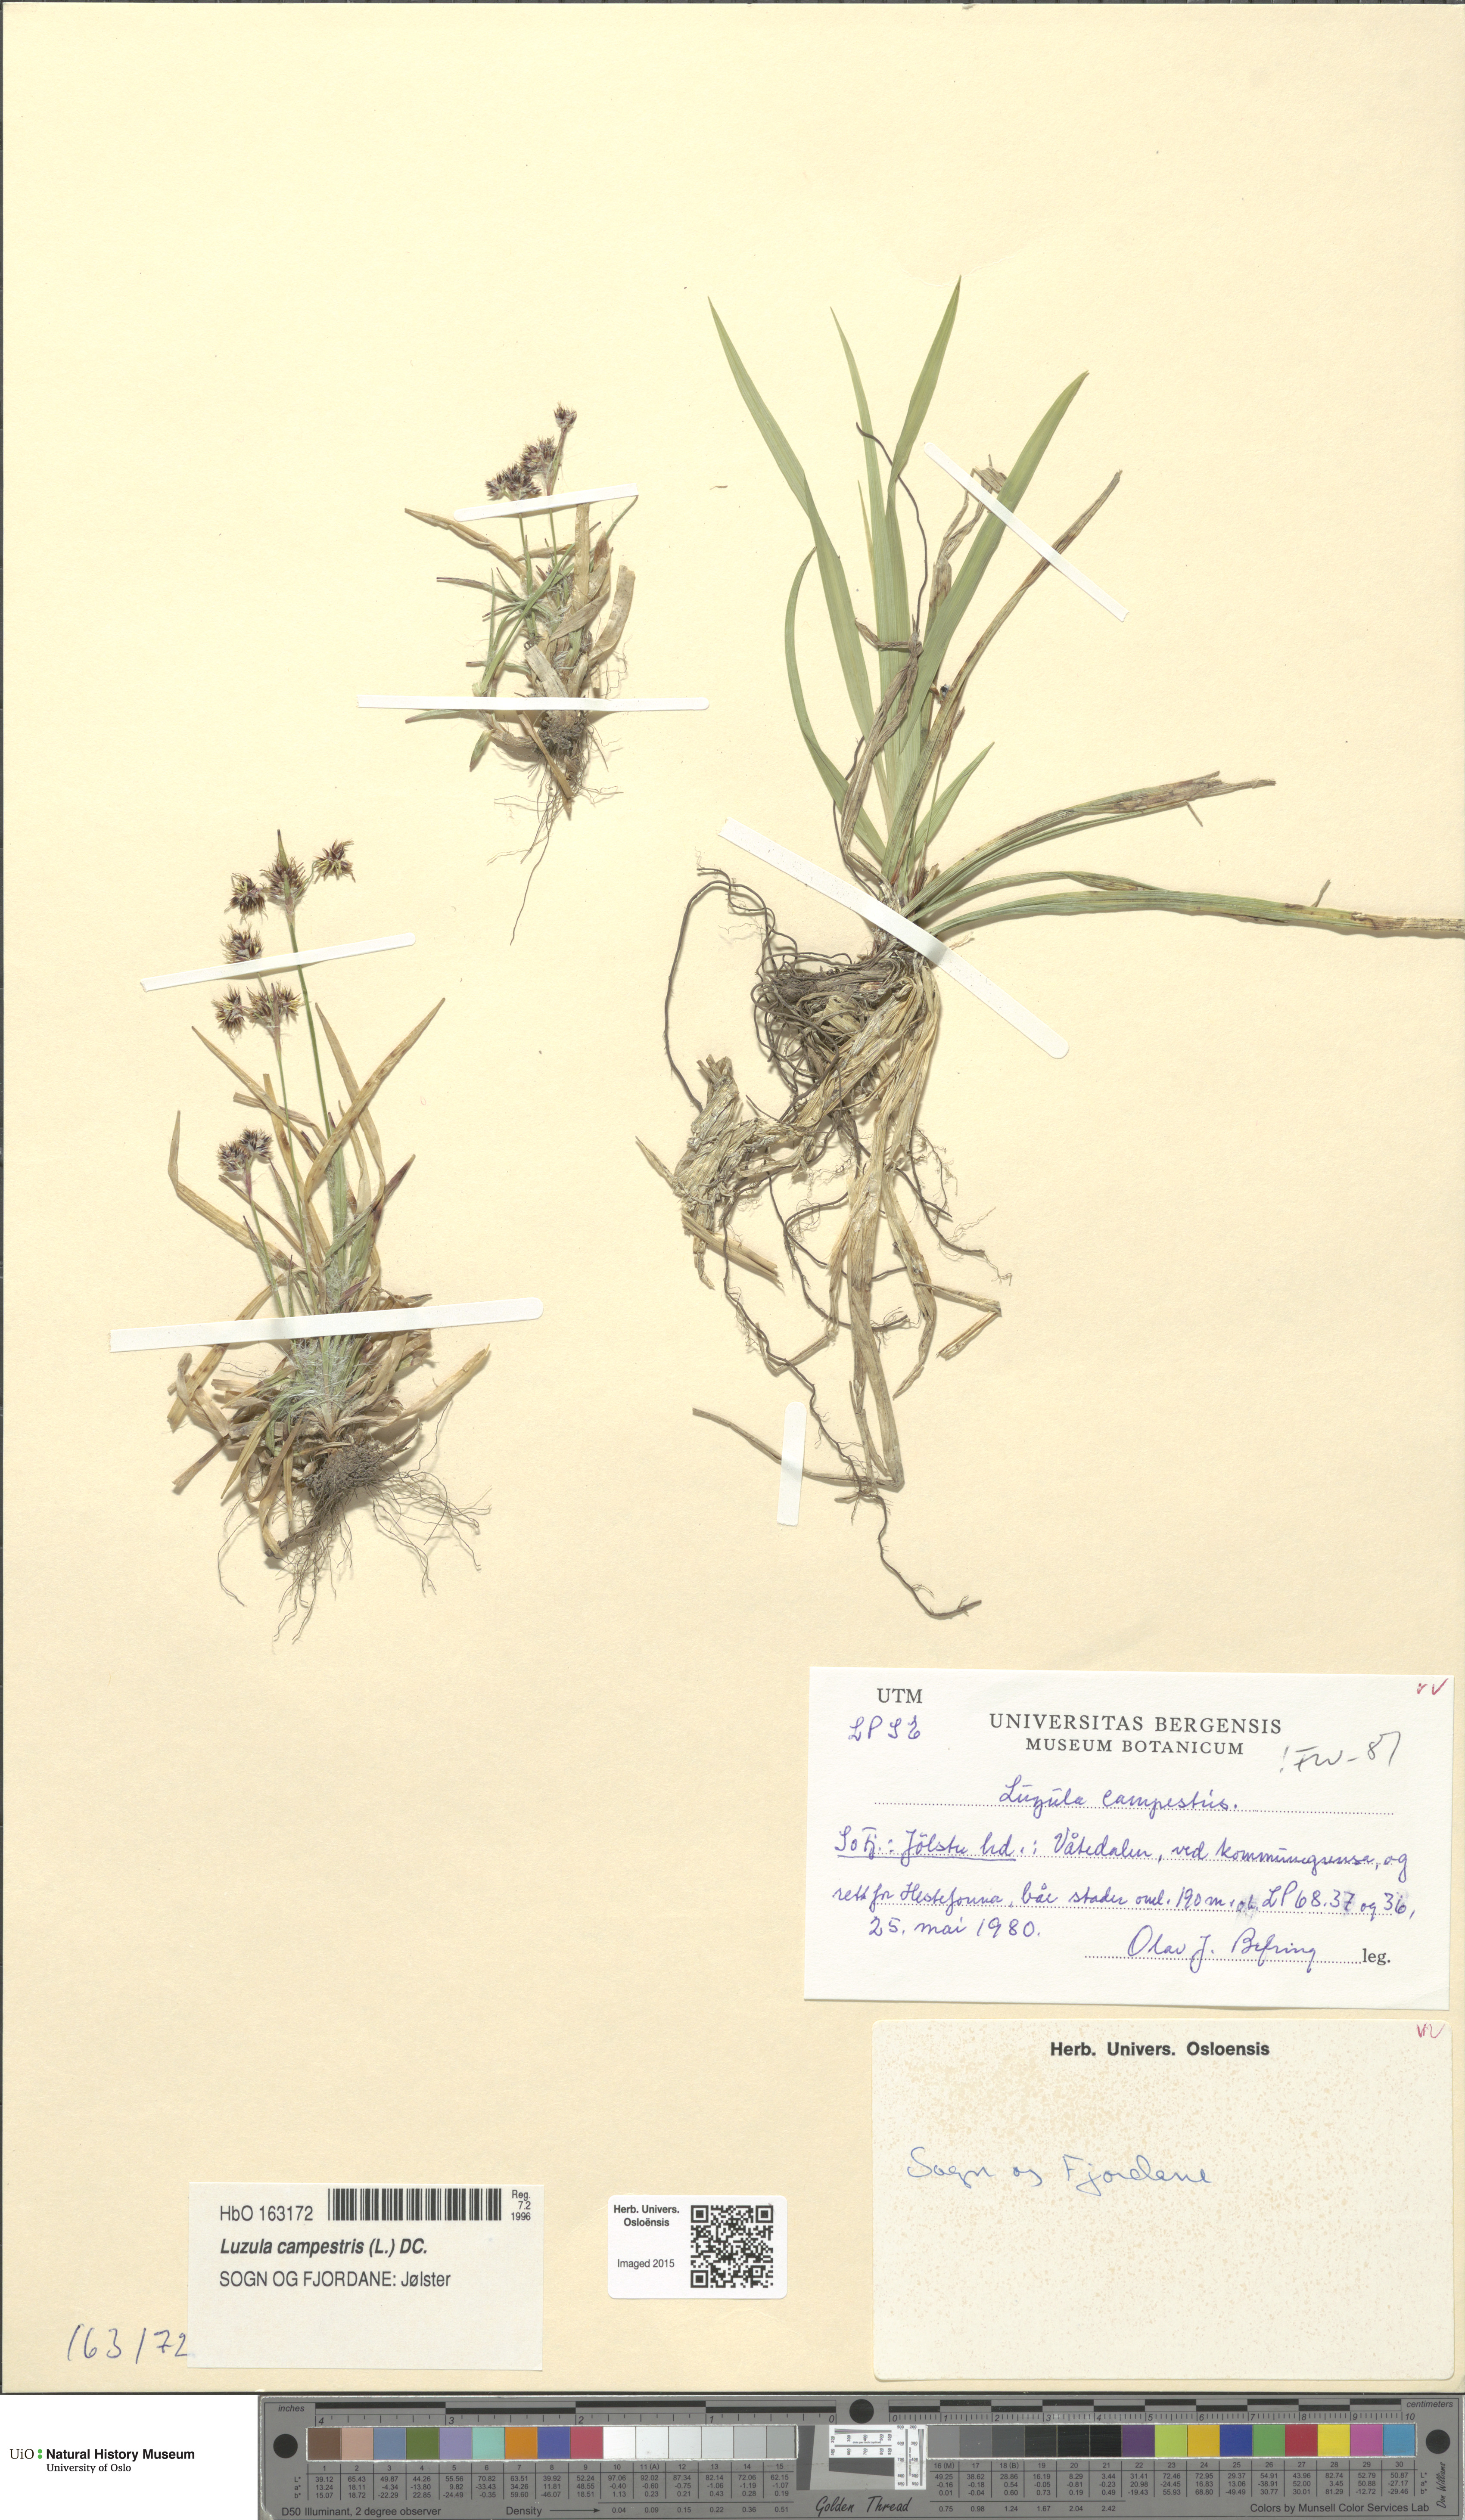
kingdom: Plantae
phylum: Tracheophyta
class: Liliopsida
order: Poales
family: Juncaceae
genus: Luzula
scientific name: Luzula campestris
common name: Field wood-rush
